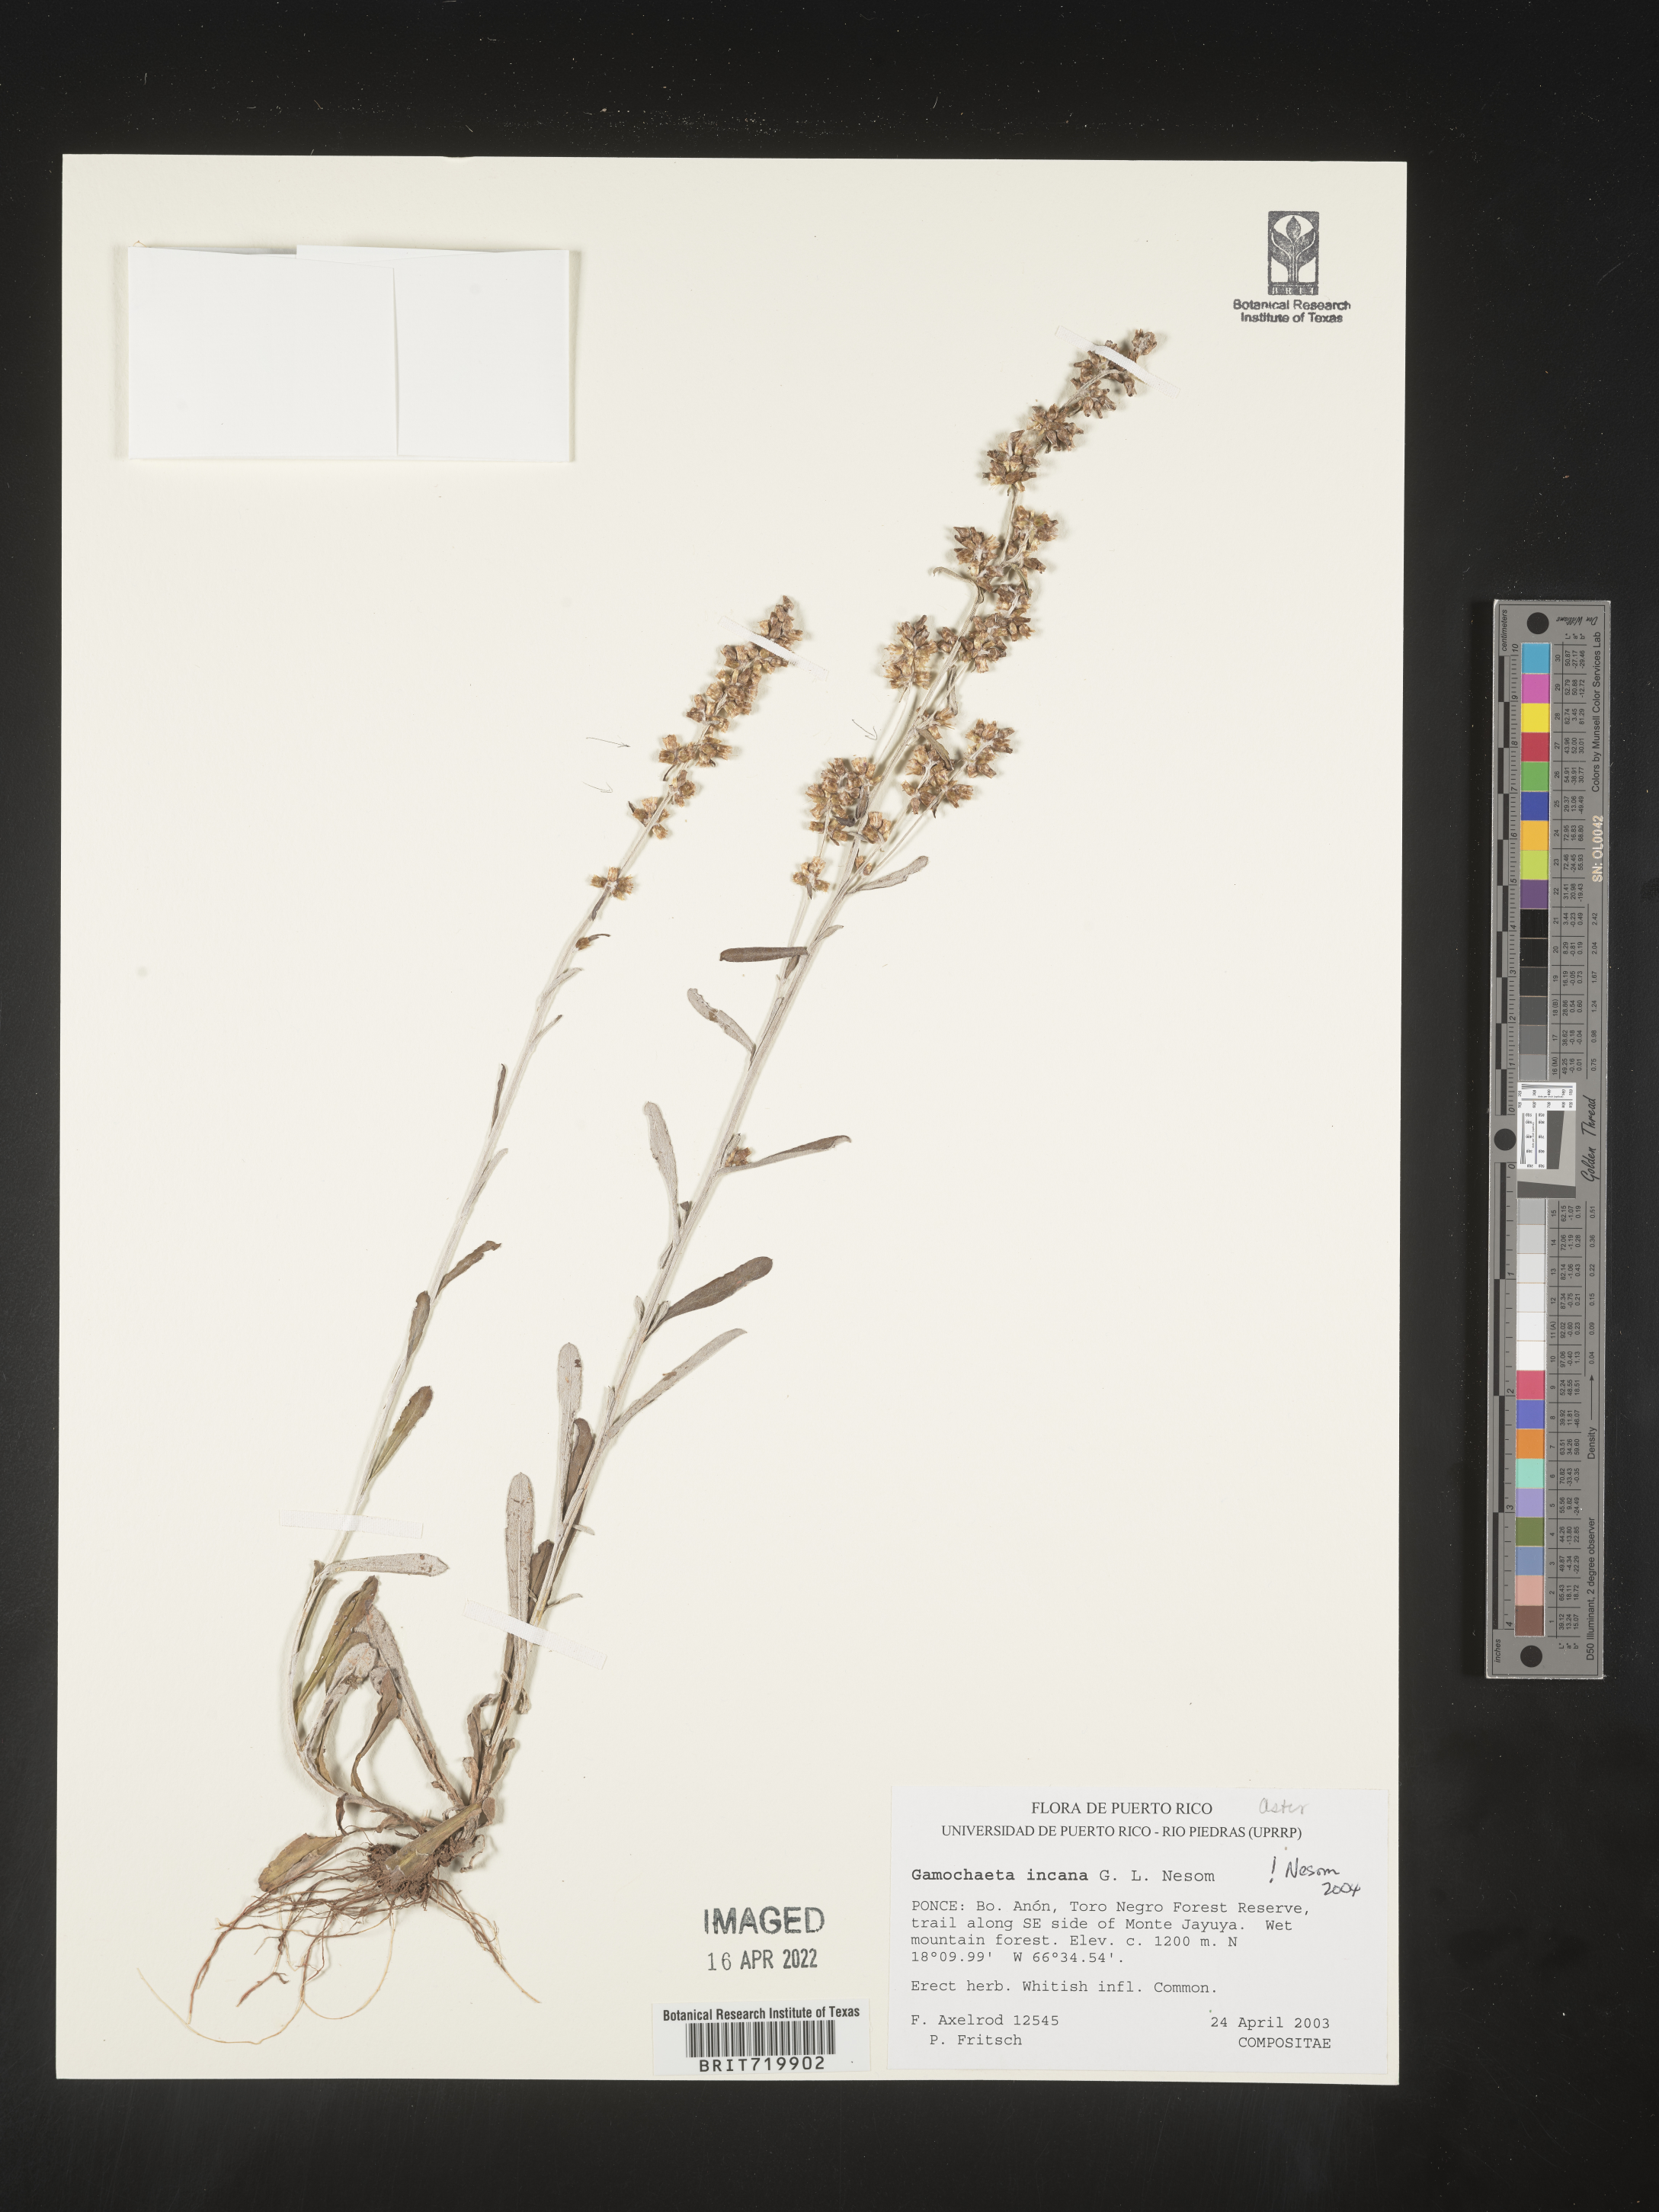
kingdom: Plantae
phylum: Tracheophyta
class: Magnoliopsida
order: Asterales
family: Asteraceae
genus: Gamochaeta
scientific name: Gamochaeta
